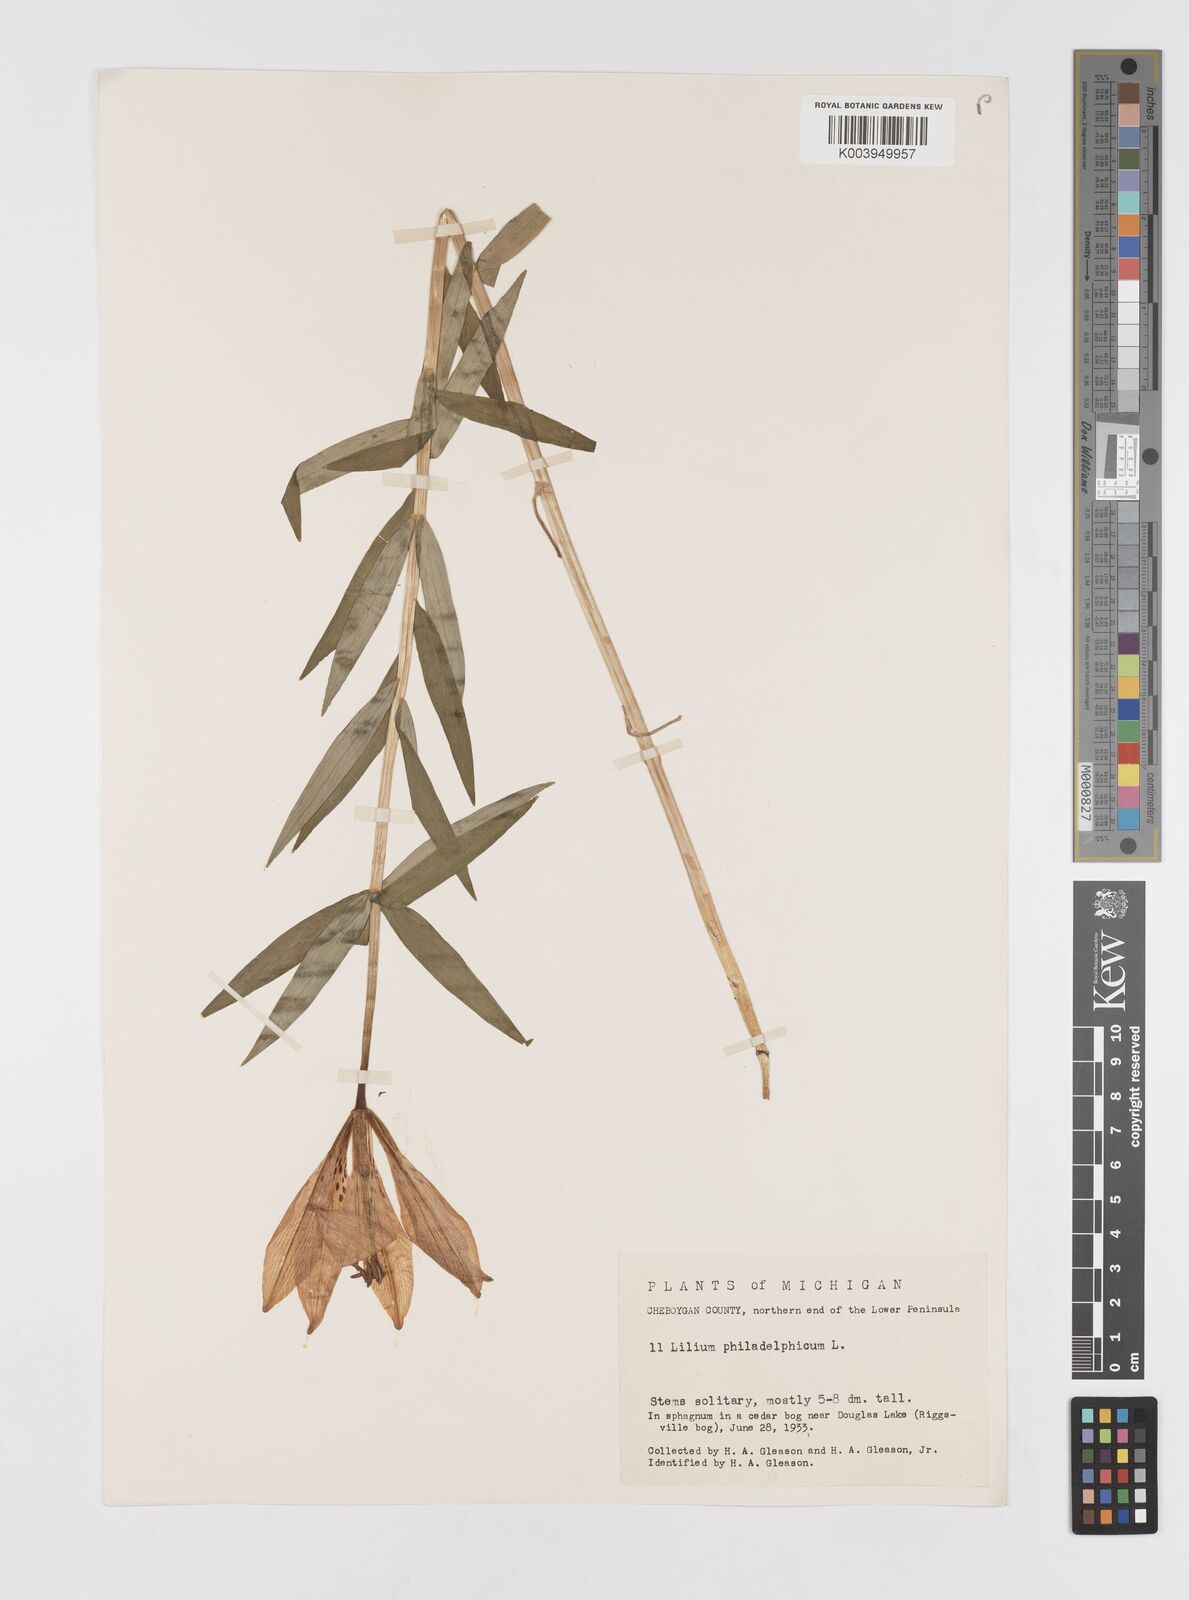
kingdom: Plantae
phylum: Tracheophyta
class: Liliopsida
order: Liliales
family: Liliaceae
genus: Lilium
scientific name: Lilium philadelphicum
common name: Red lily
